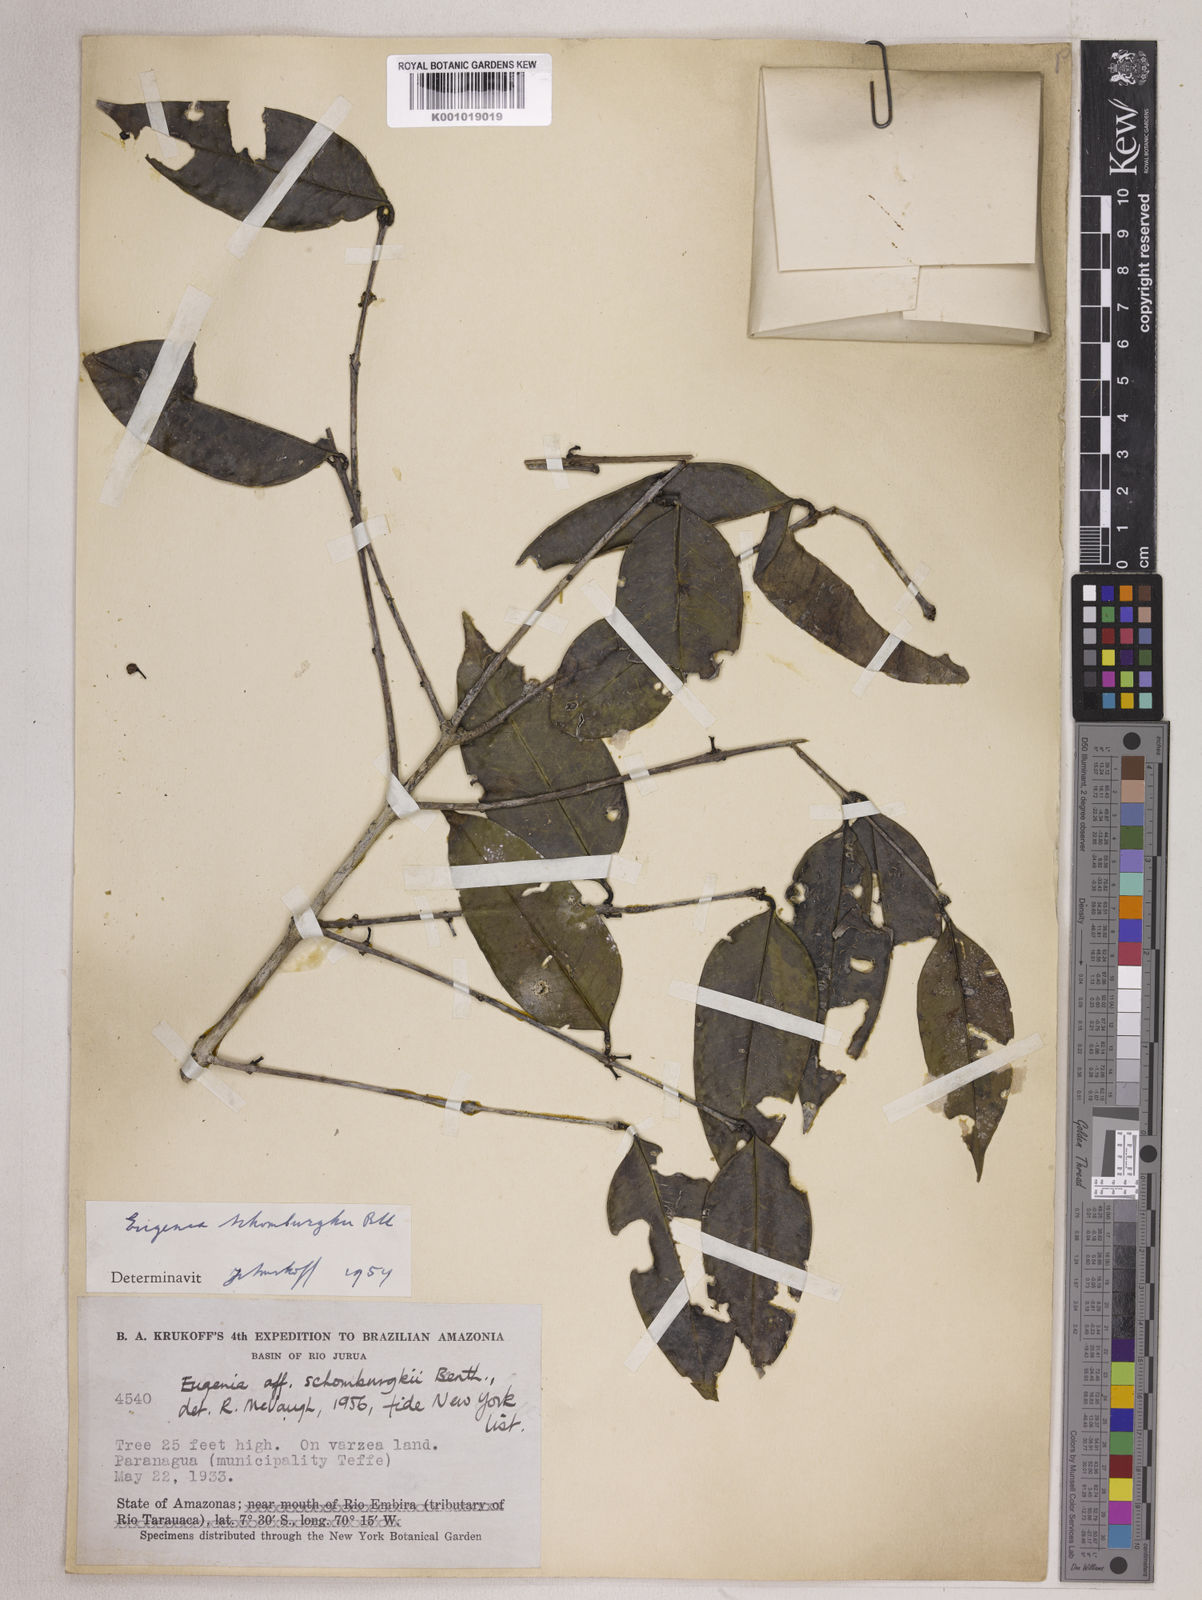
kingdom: Plantae
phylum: Tracheophyta
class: Magnoliopsida
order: Myrtales
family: Myrtaceae
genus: Eugenia
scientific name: Eugenia lambertiana
